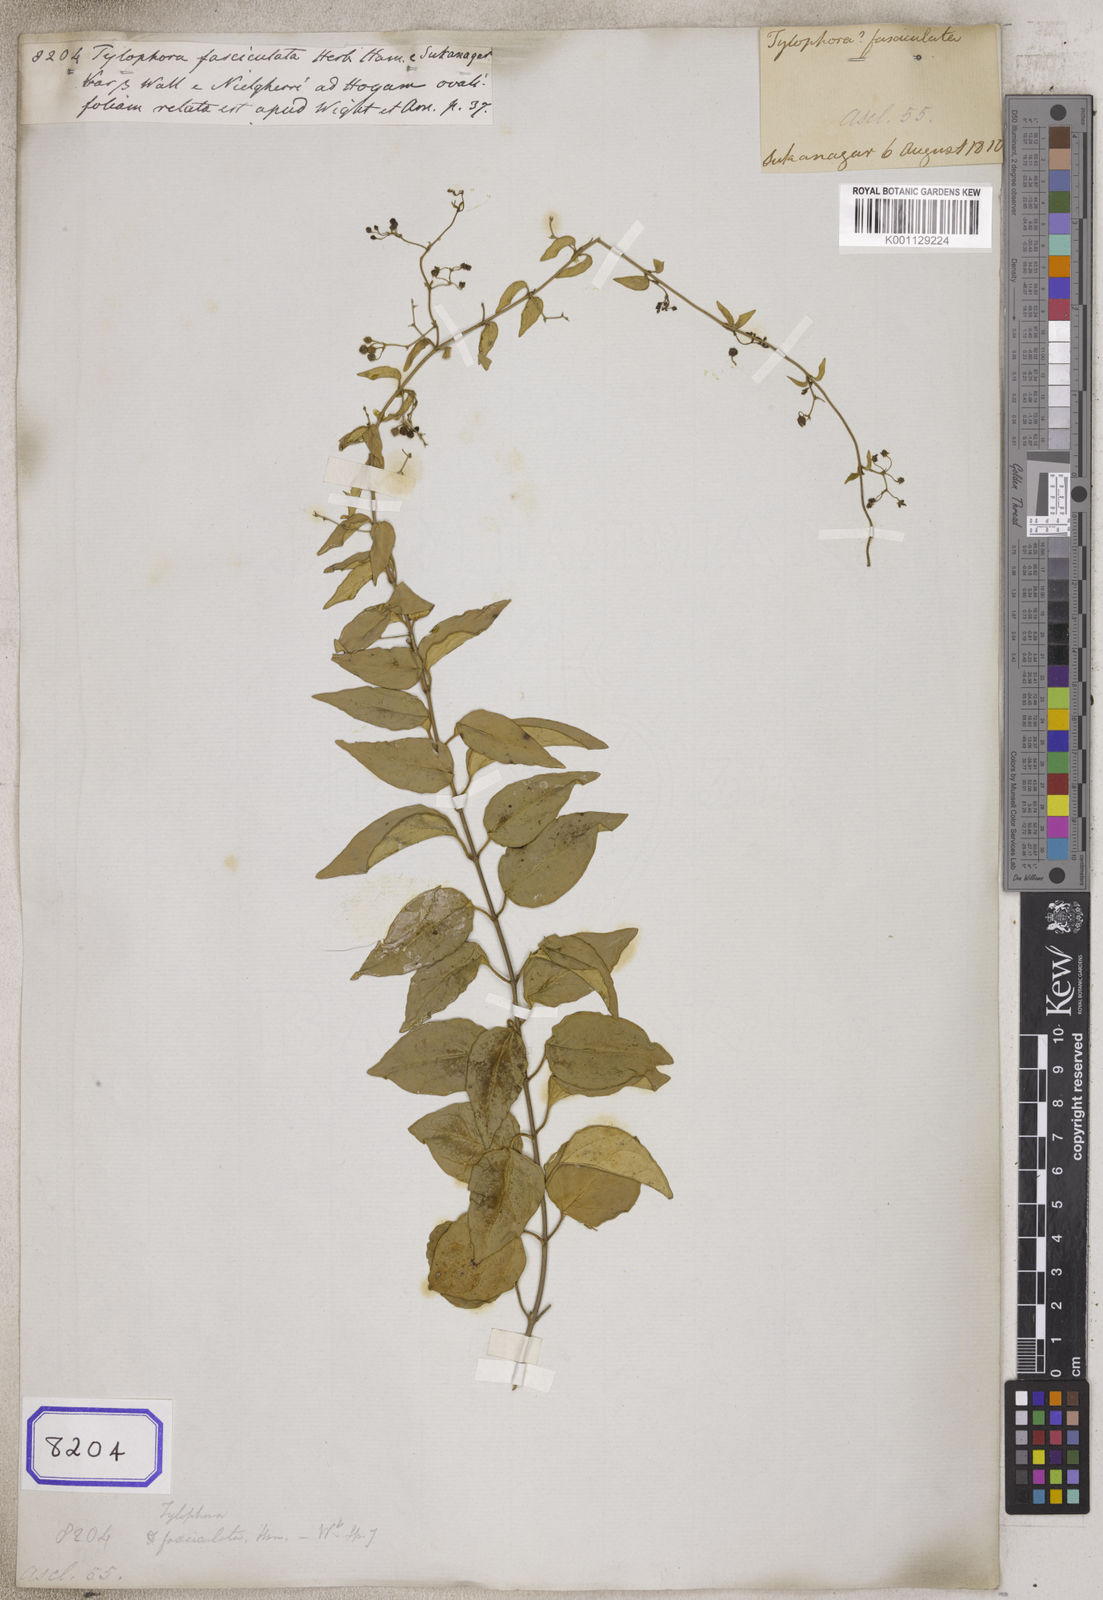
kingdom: Plantae
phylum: Tracheophyta
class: Magnoliopsida
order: Gentianales
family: Apocynaceae
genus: Vincetoxicum
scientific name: Vincetoxicum fasciculatum
